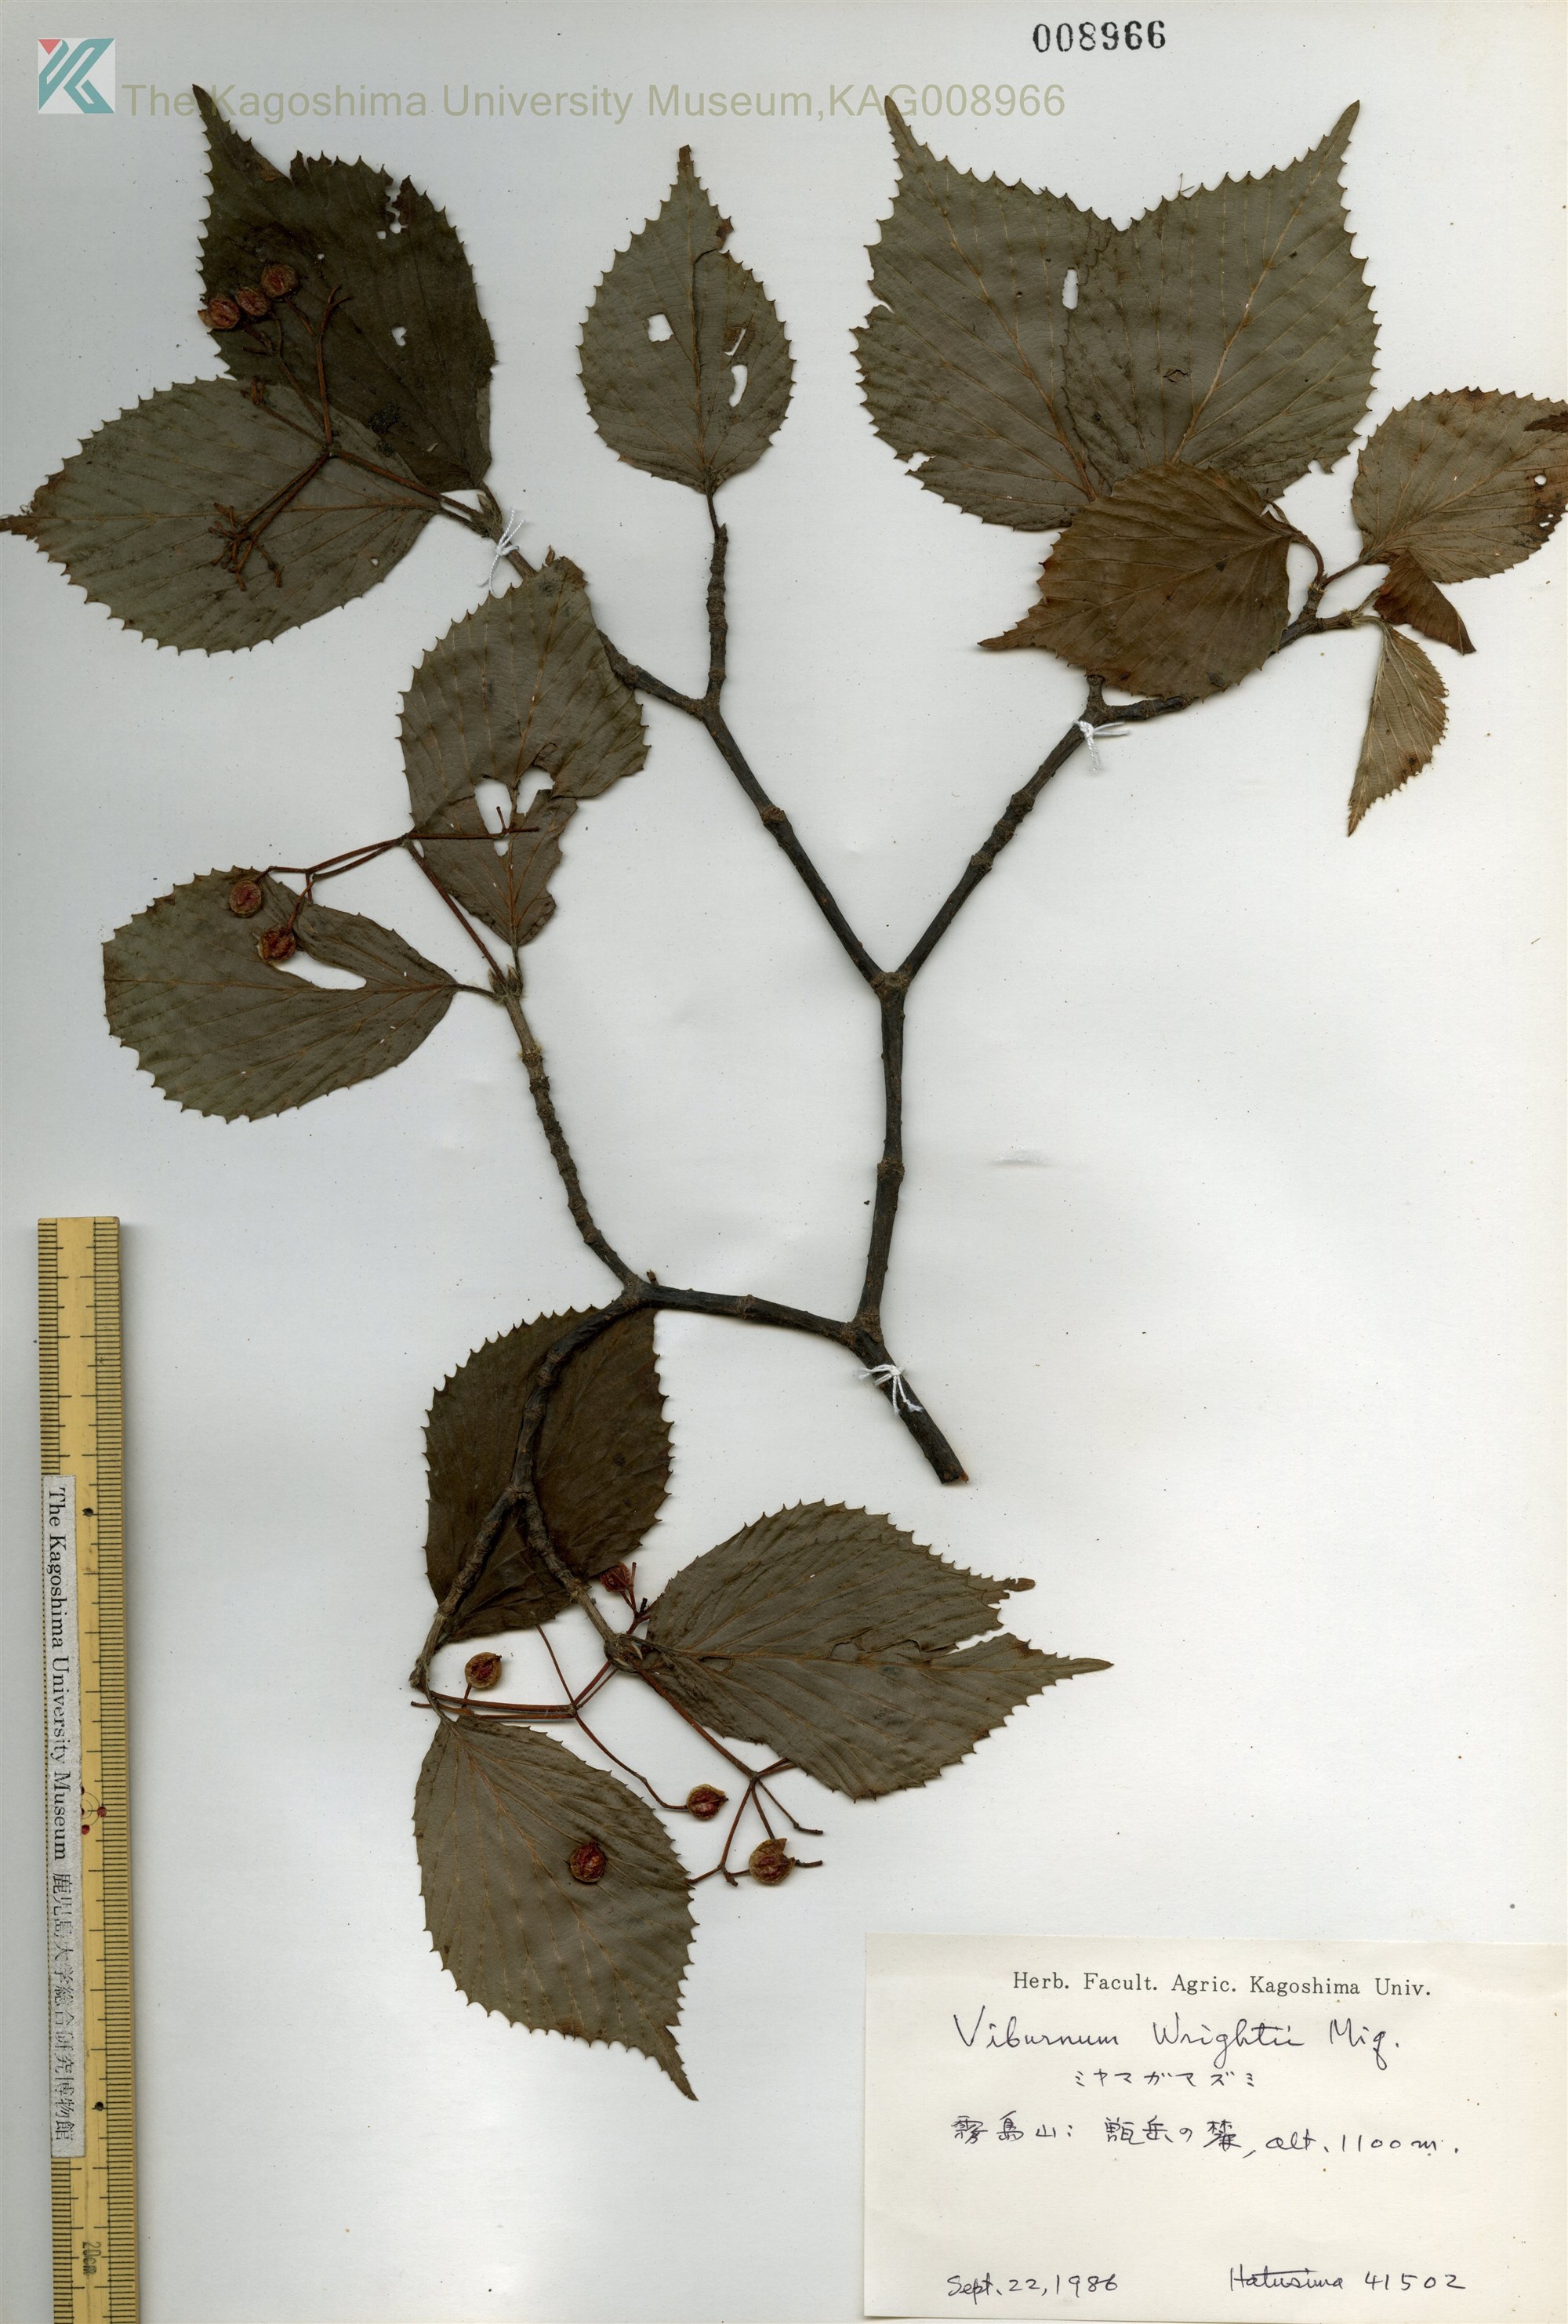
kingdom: Plantae
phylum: Tracheophyta
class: Magnoliopsida
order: Dipsacales
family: Viburnaceae
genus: Viburnum
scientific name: Viburnum wrightii
